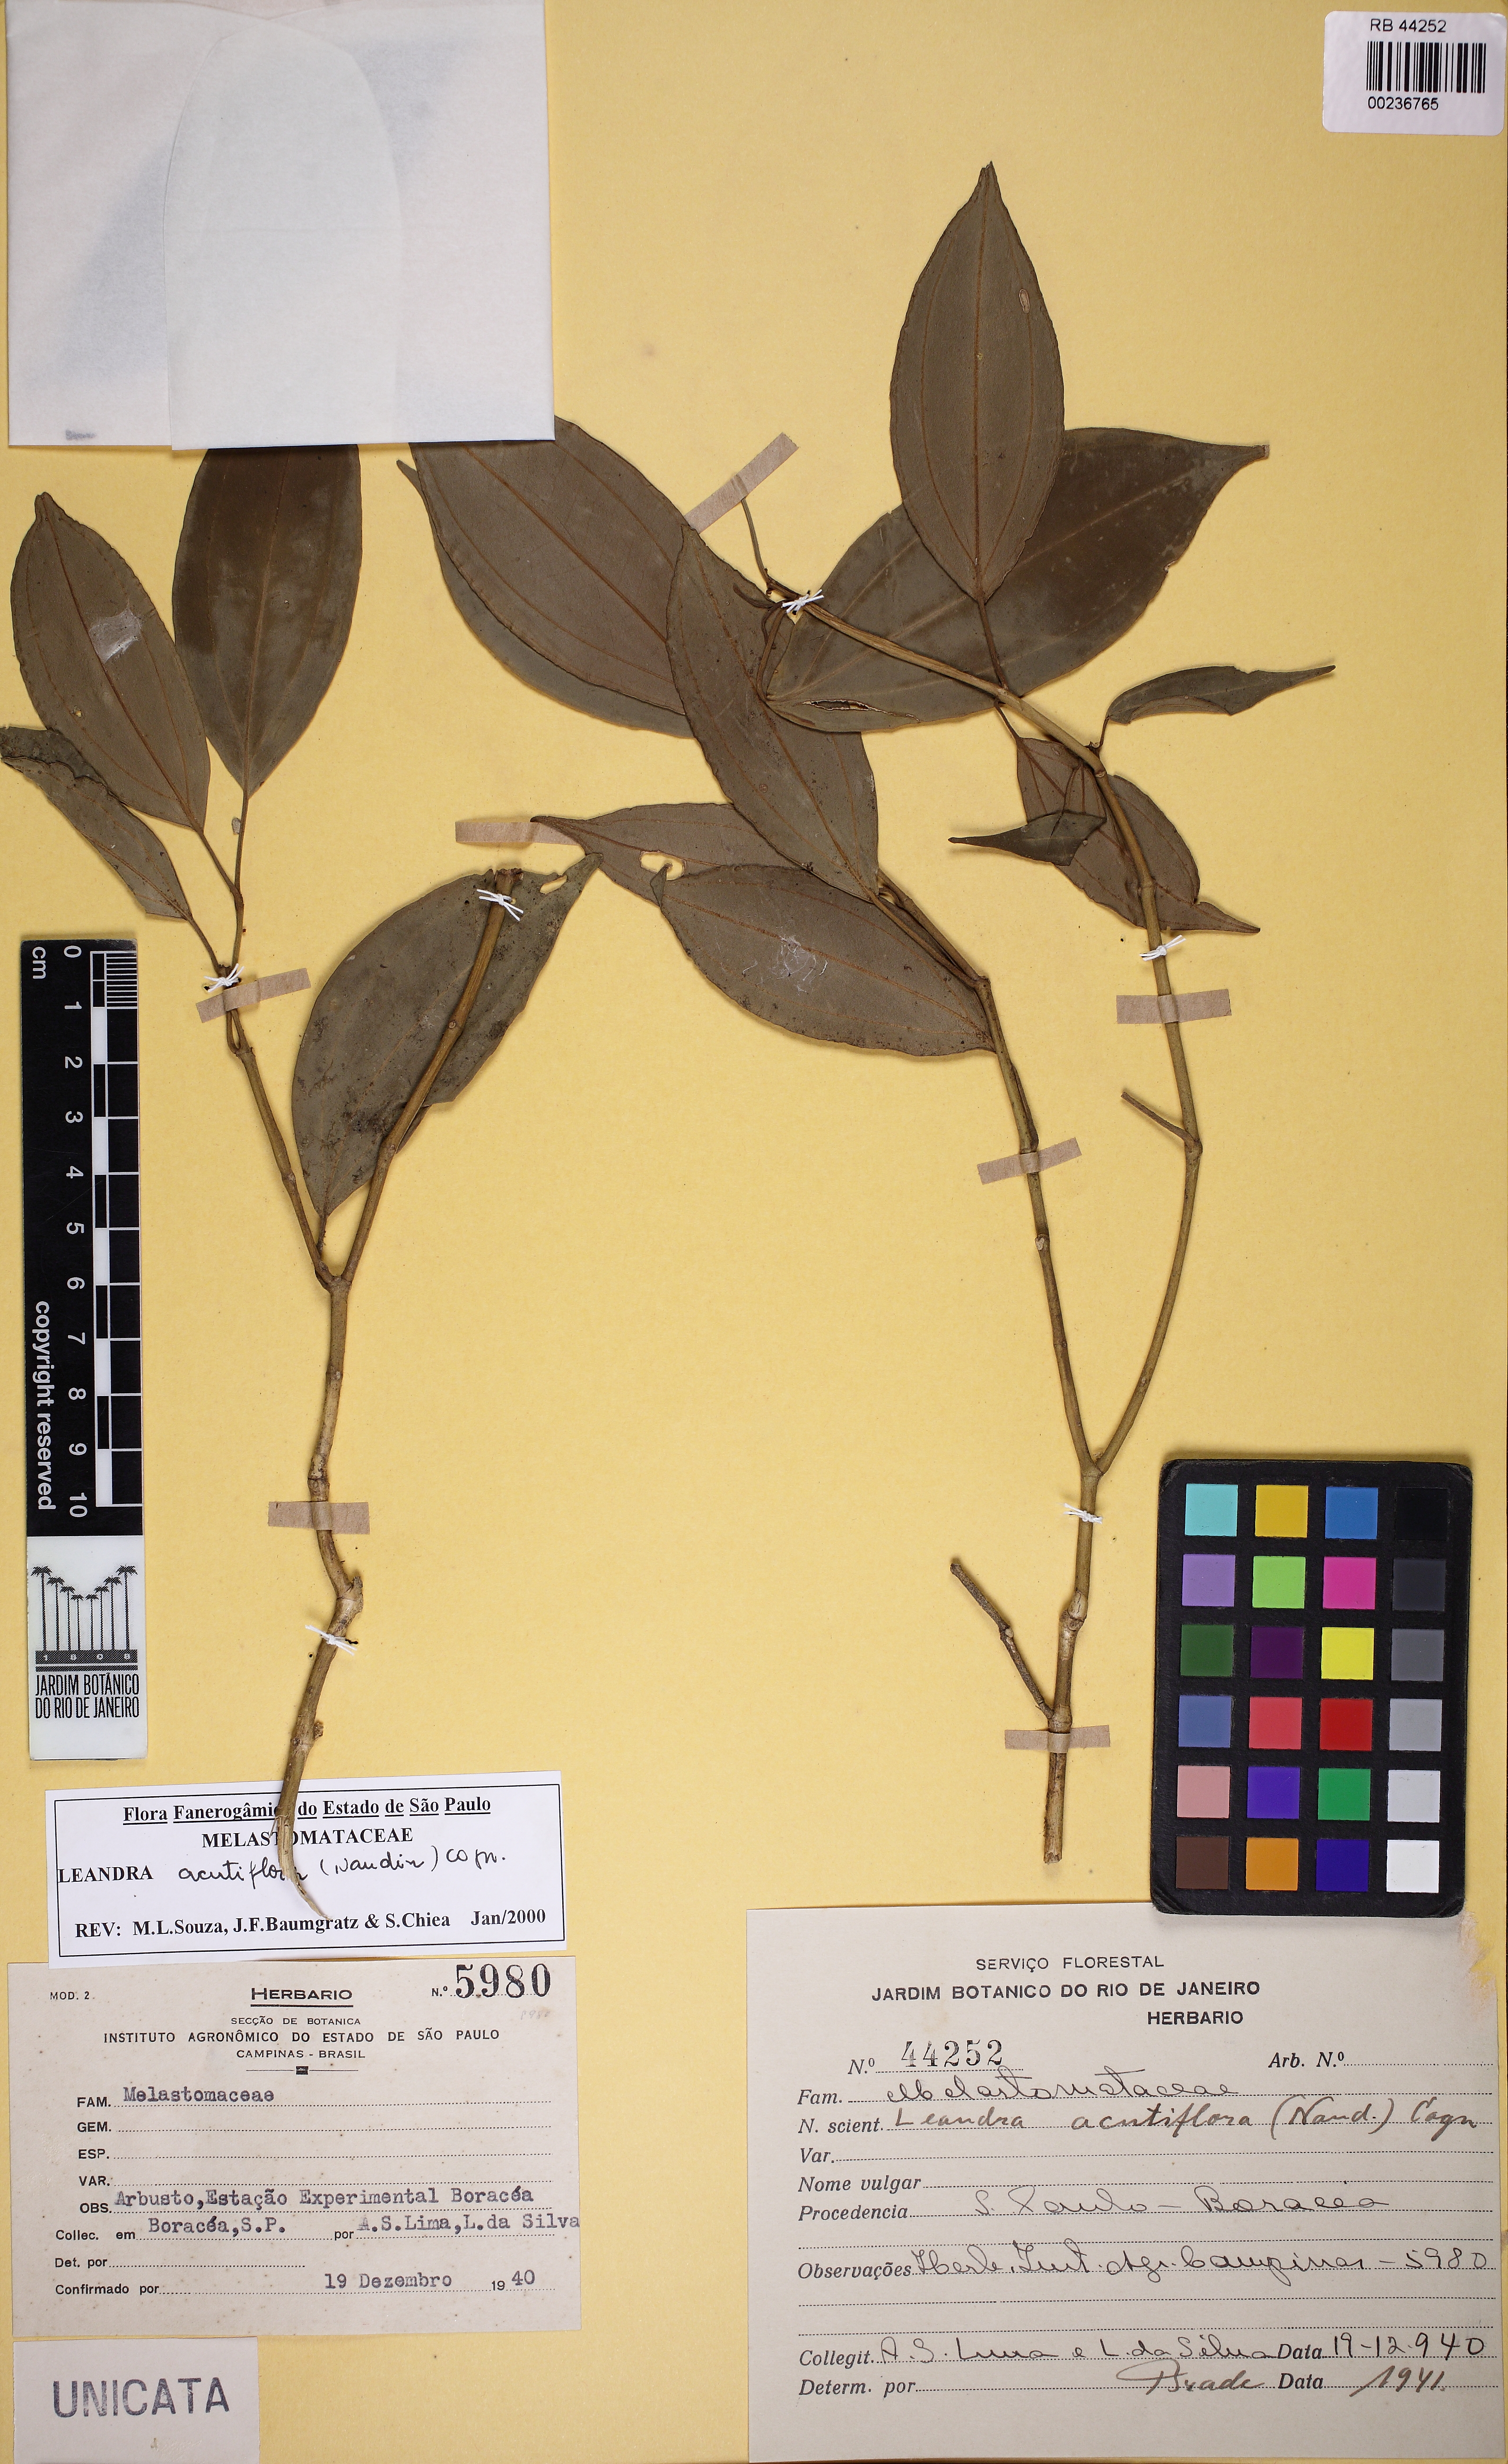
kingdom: Plantae
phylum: Tracheophyta
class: Magnoliopsida
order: Myrtales
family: Melastomataceae
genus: Miconia
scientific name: Miconia acutiflora
